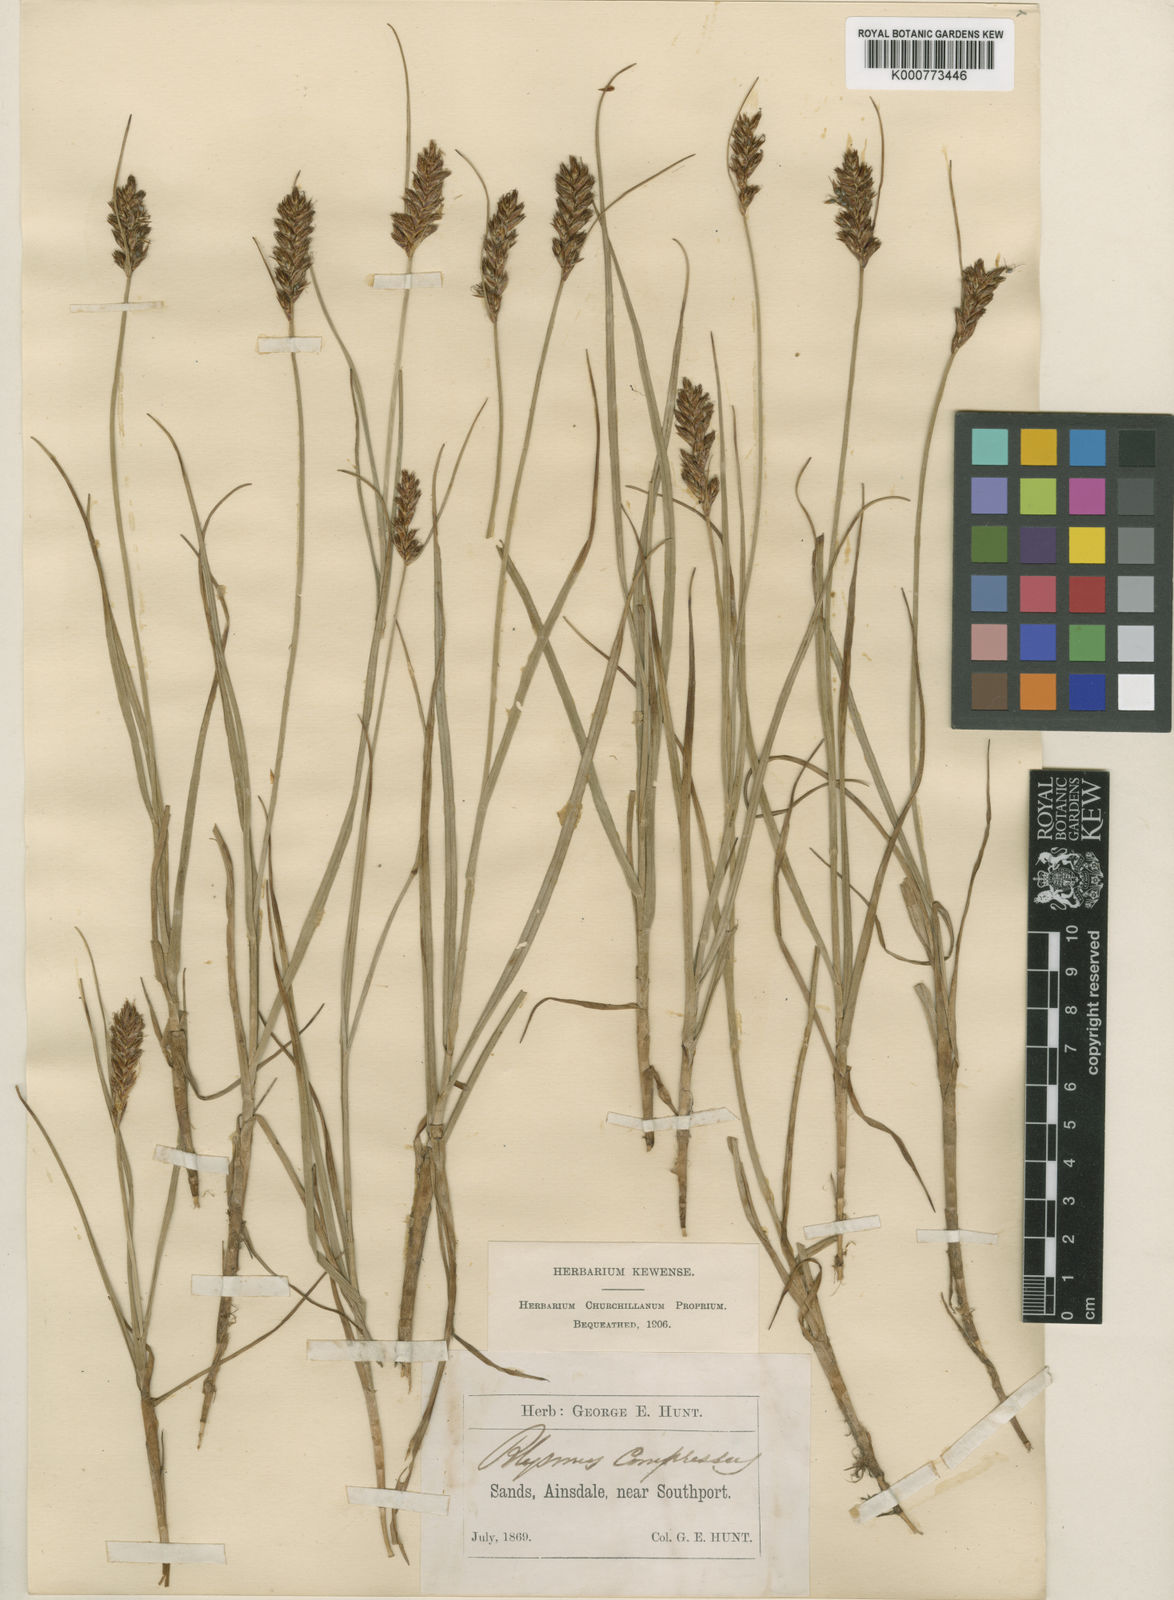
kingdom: Plantae
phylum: Tracheophyta
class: Liliopsida
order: Poales
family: Cyperaceae
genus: Blysmus
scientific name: Blysmus compressus
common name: Flat-sedge
